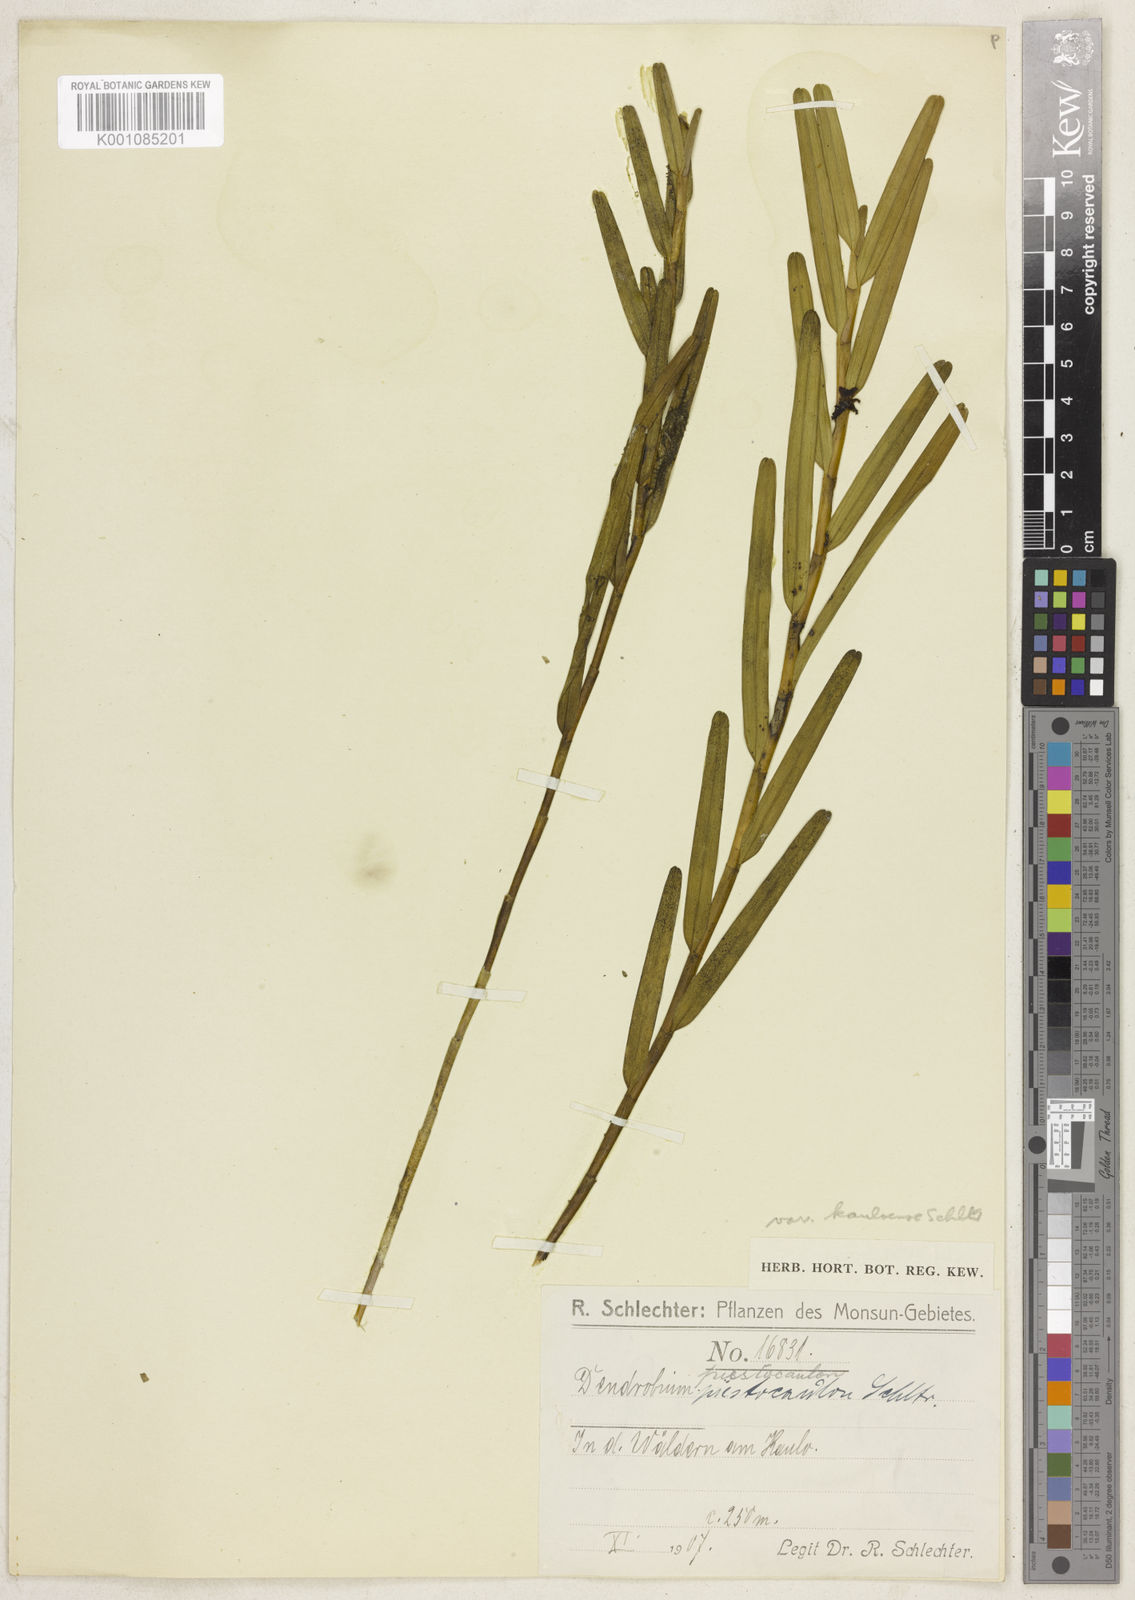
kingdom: Plantae
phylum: Tracheophyta
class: Liliopsida
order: Asparagales
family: Orchidaceae
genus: Dendrobium
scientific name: Dendrobium piestocaulon
